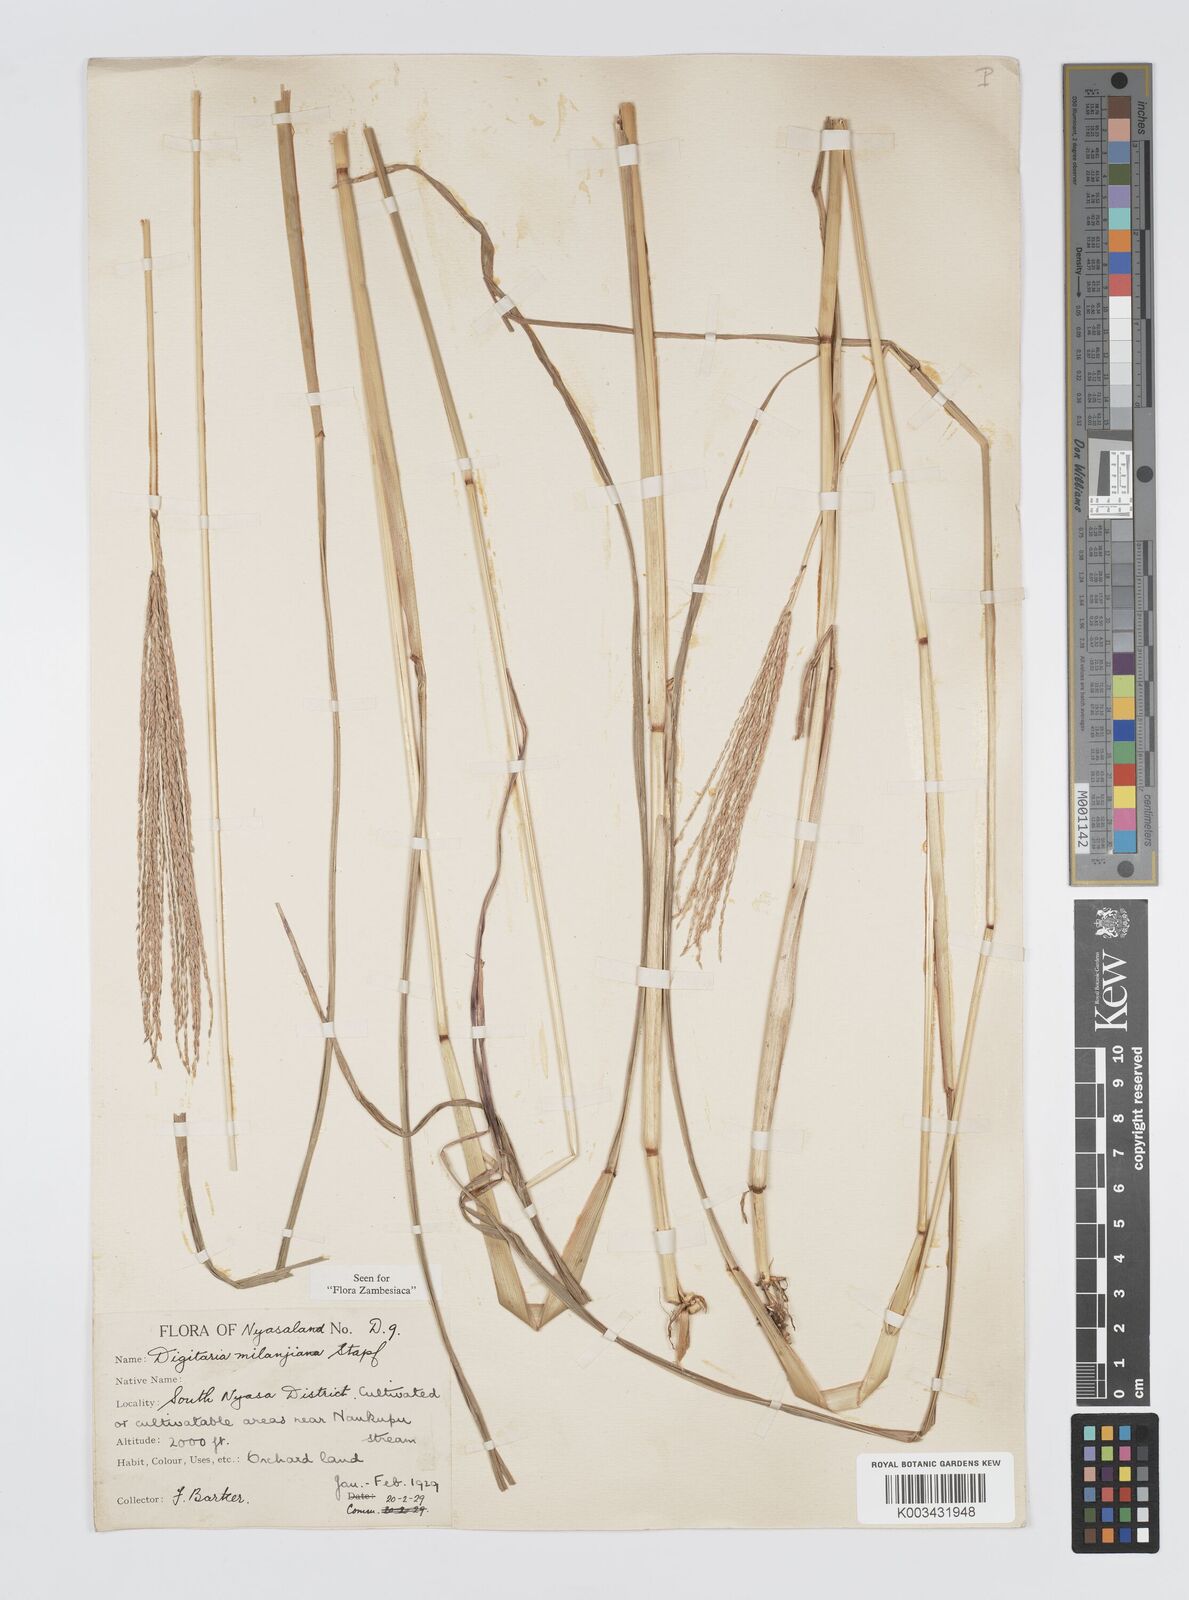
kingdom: Plantae
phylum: Tracheophyta
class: Liliopsida
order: Poales
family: Poaceae
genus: Digitaria
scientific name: Digitaria milanjiana
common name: Madagascar crabgrass
